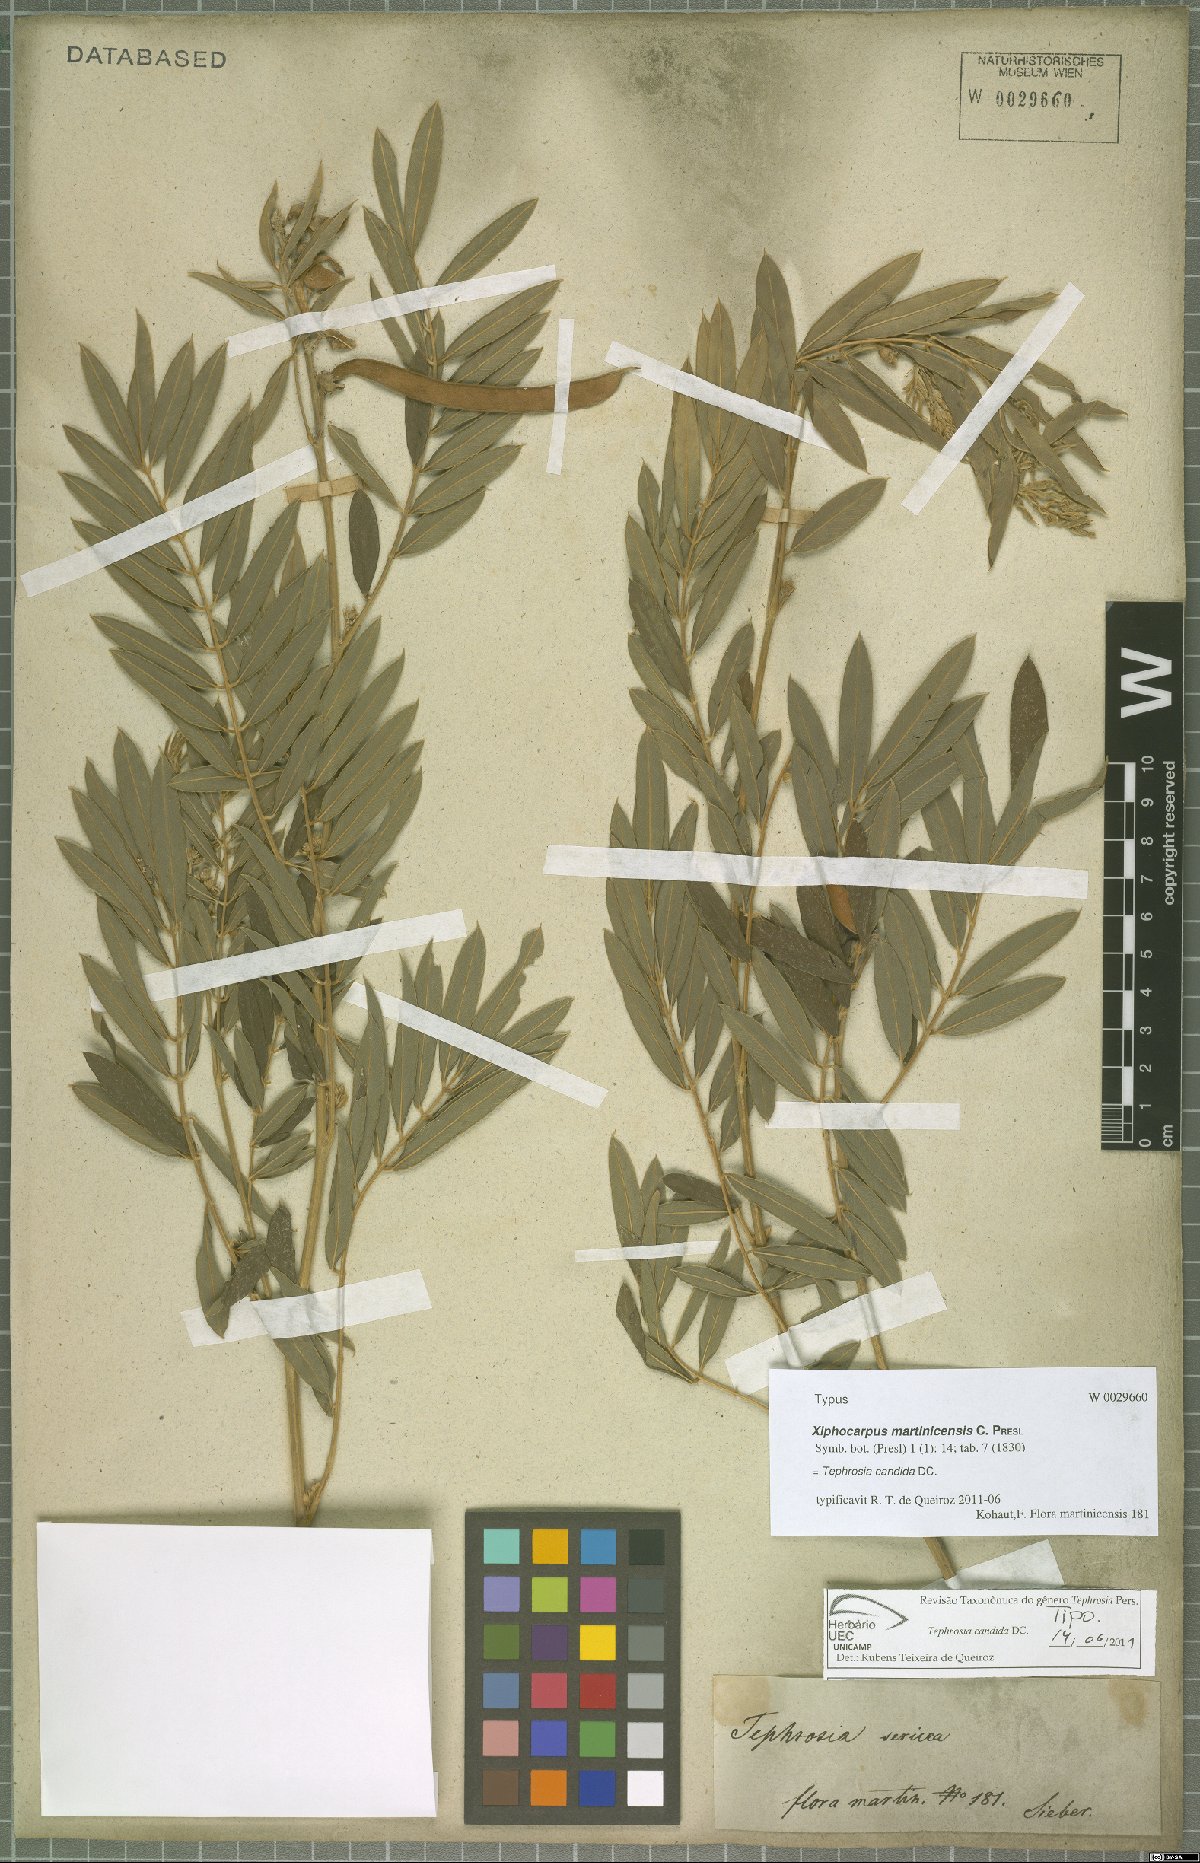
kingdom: Plantae
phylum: Tracheophyta
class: Magnoliopsida
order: Fabales
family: Fabaceae
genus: Tephrosia
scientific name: Tephrosia candida
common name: White tephrosia
